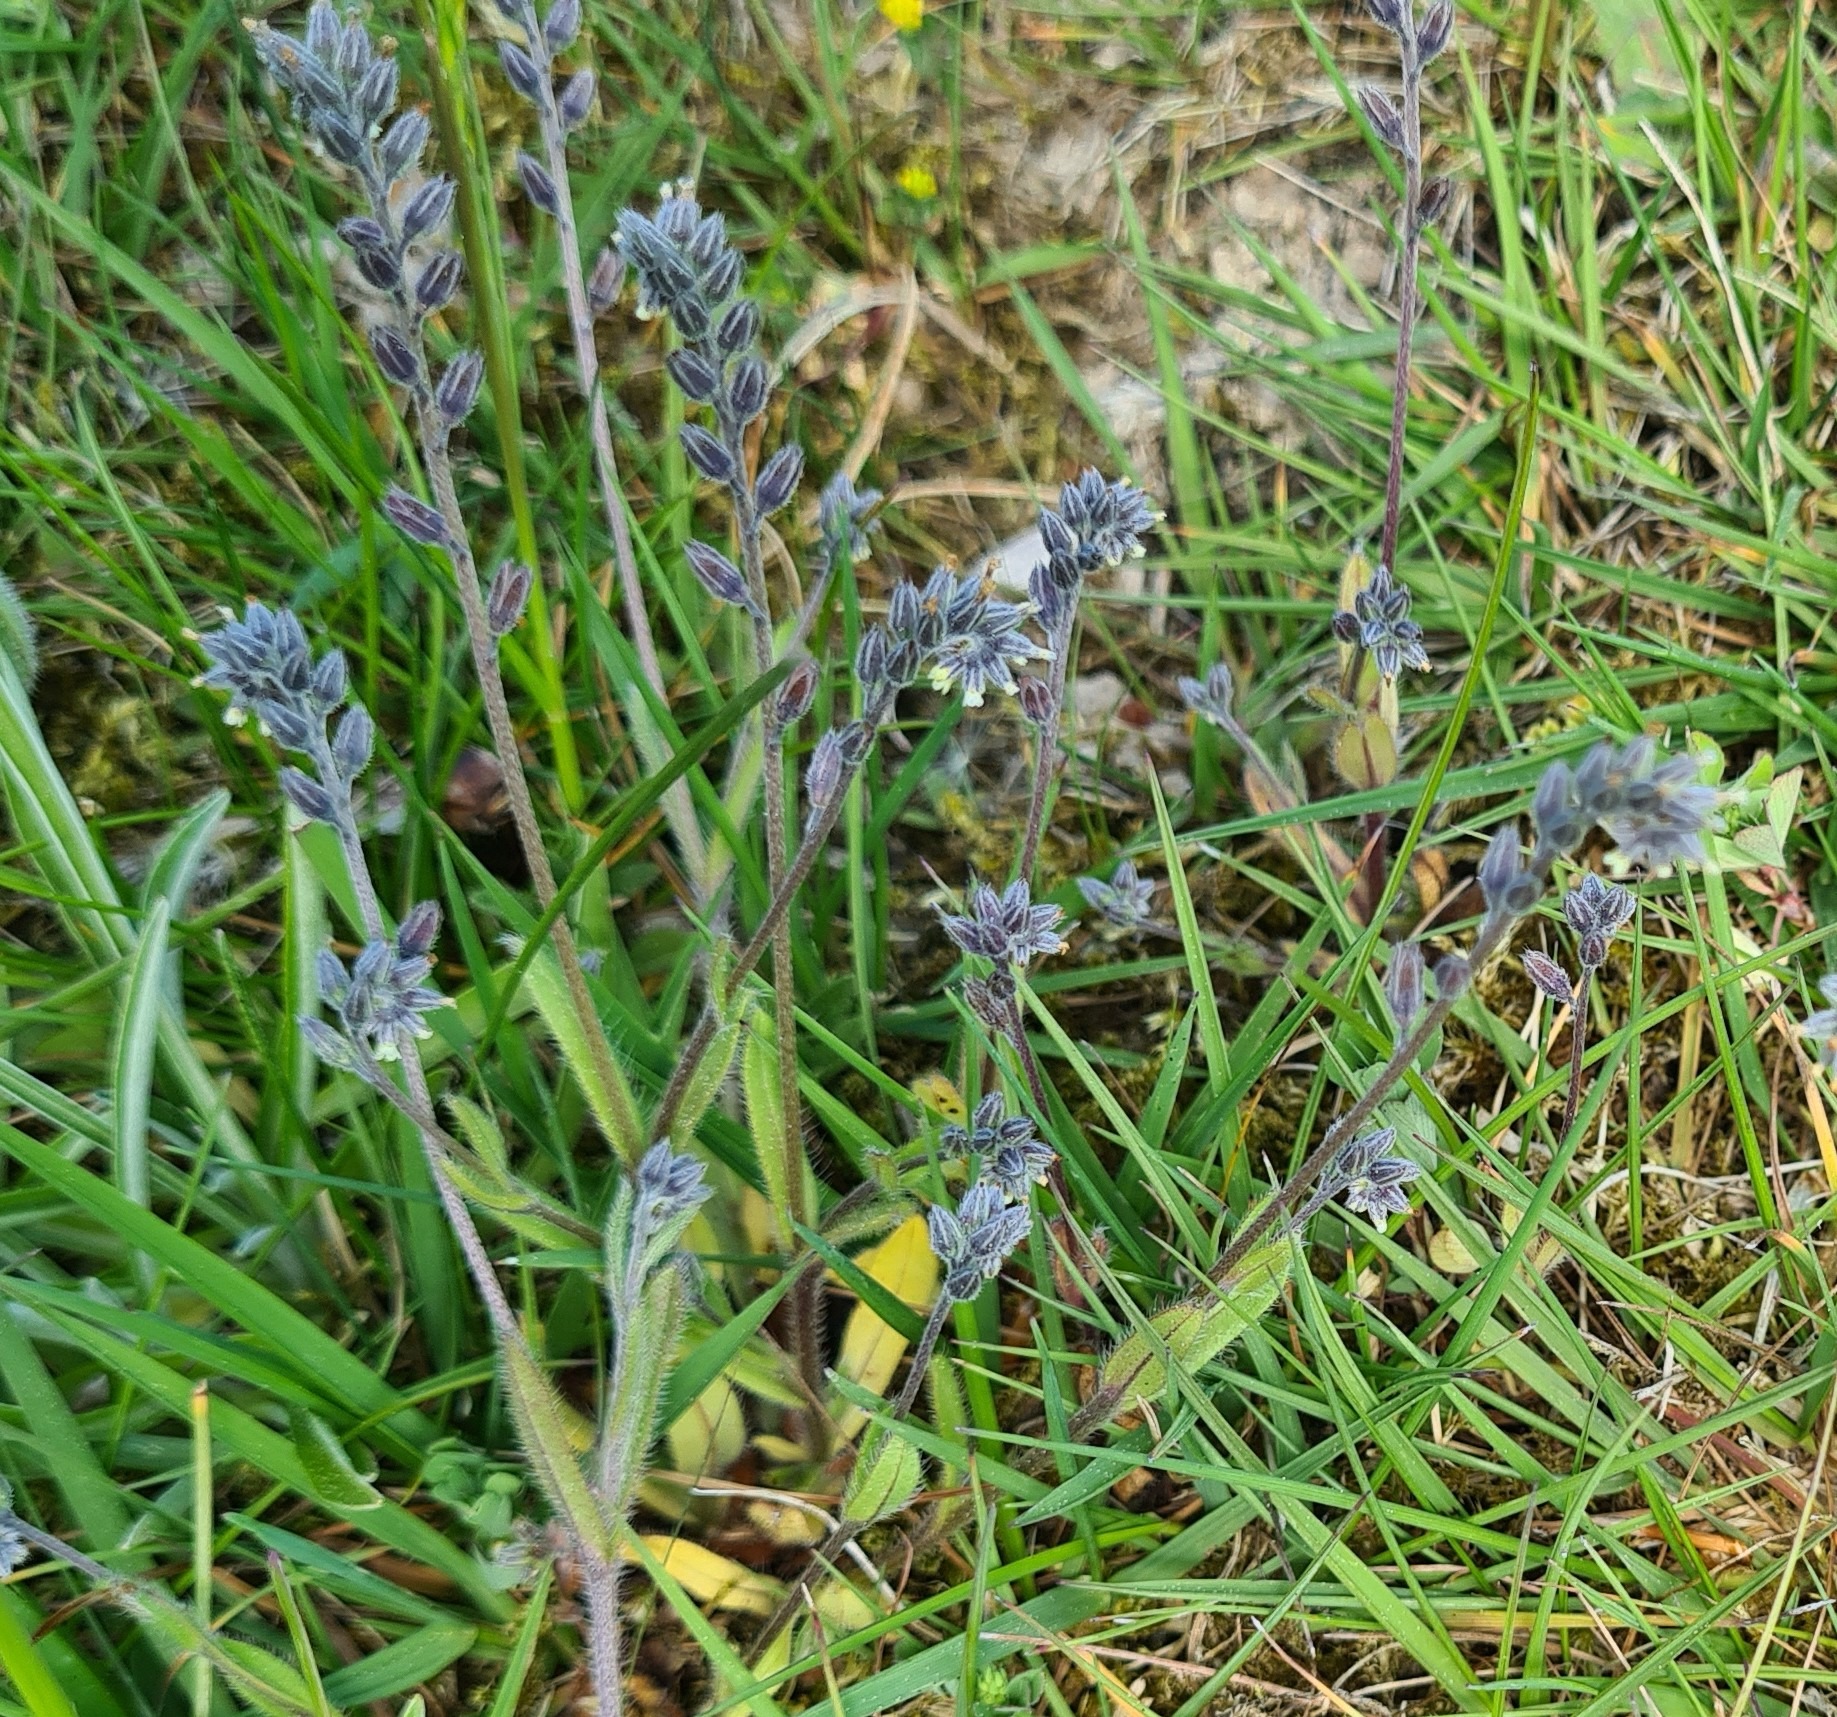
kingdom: Plantae
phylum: Tracheophyta
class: Magnoliopsida
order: Boraginales
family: Boraginaceae
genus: Myosotis
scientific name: Myosotis discolor
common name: Forskelligfarvet forglemmigej
